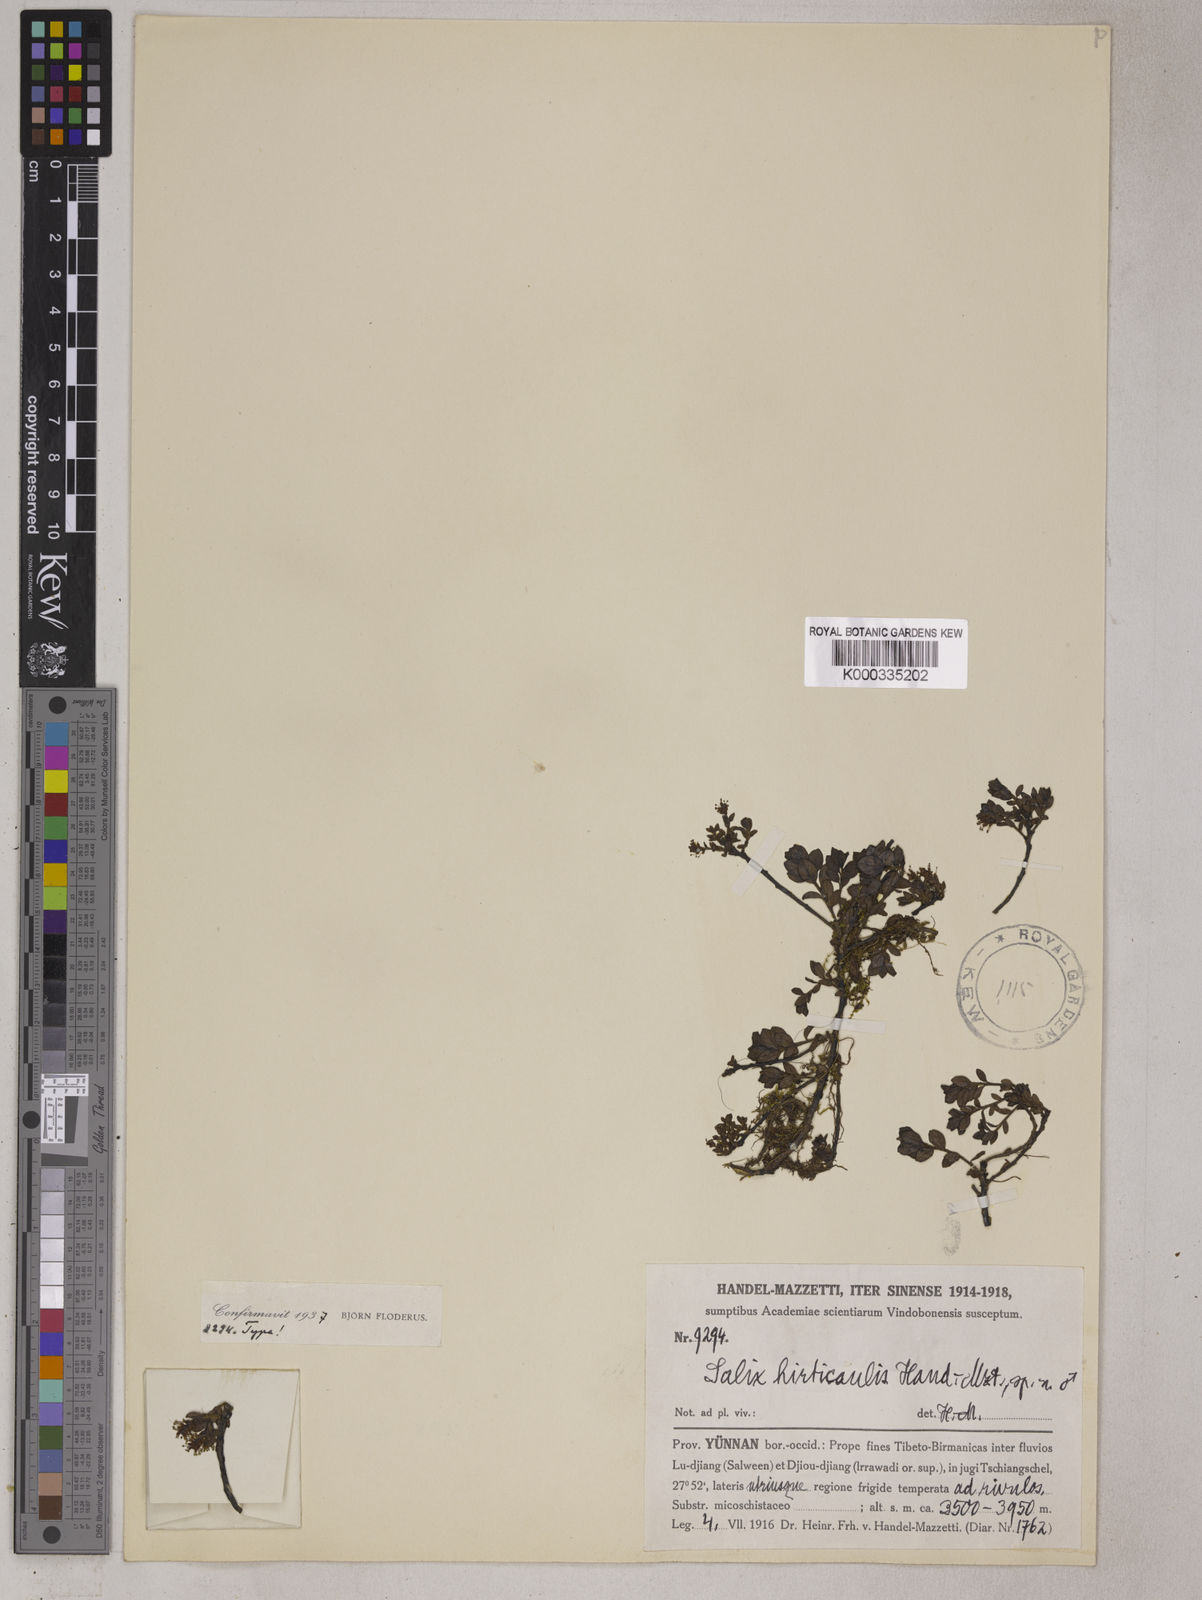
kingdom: Plantae
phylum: Tracheophyta
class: Magnoliopsida
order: Malpighiales
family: Salicaceae
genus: Salix
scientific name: Salix oreophila
